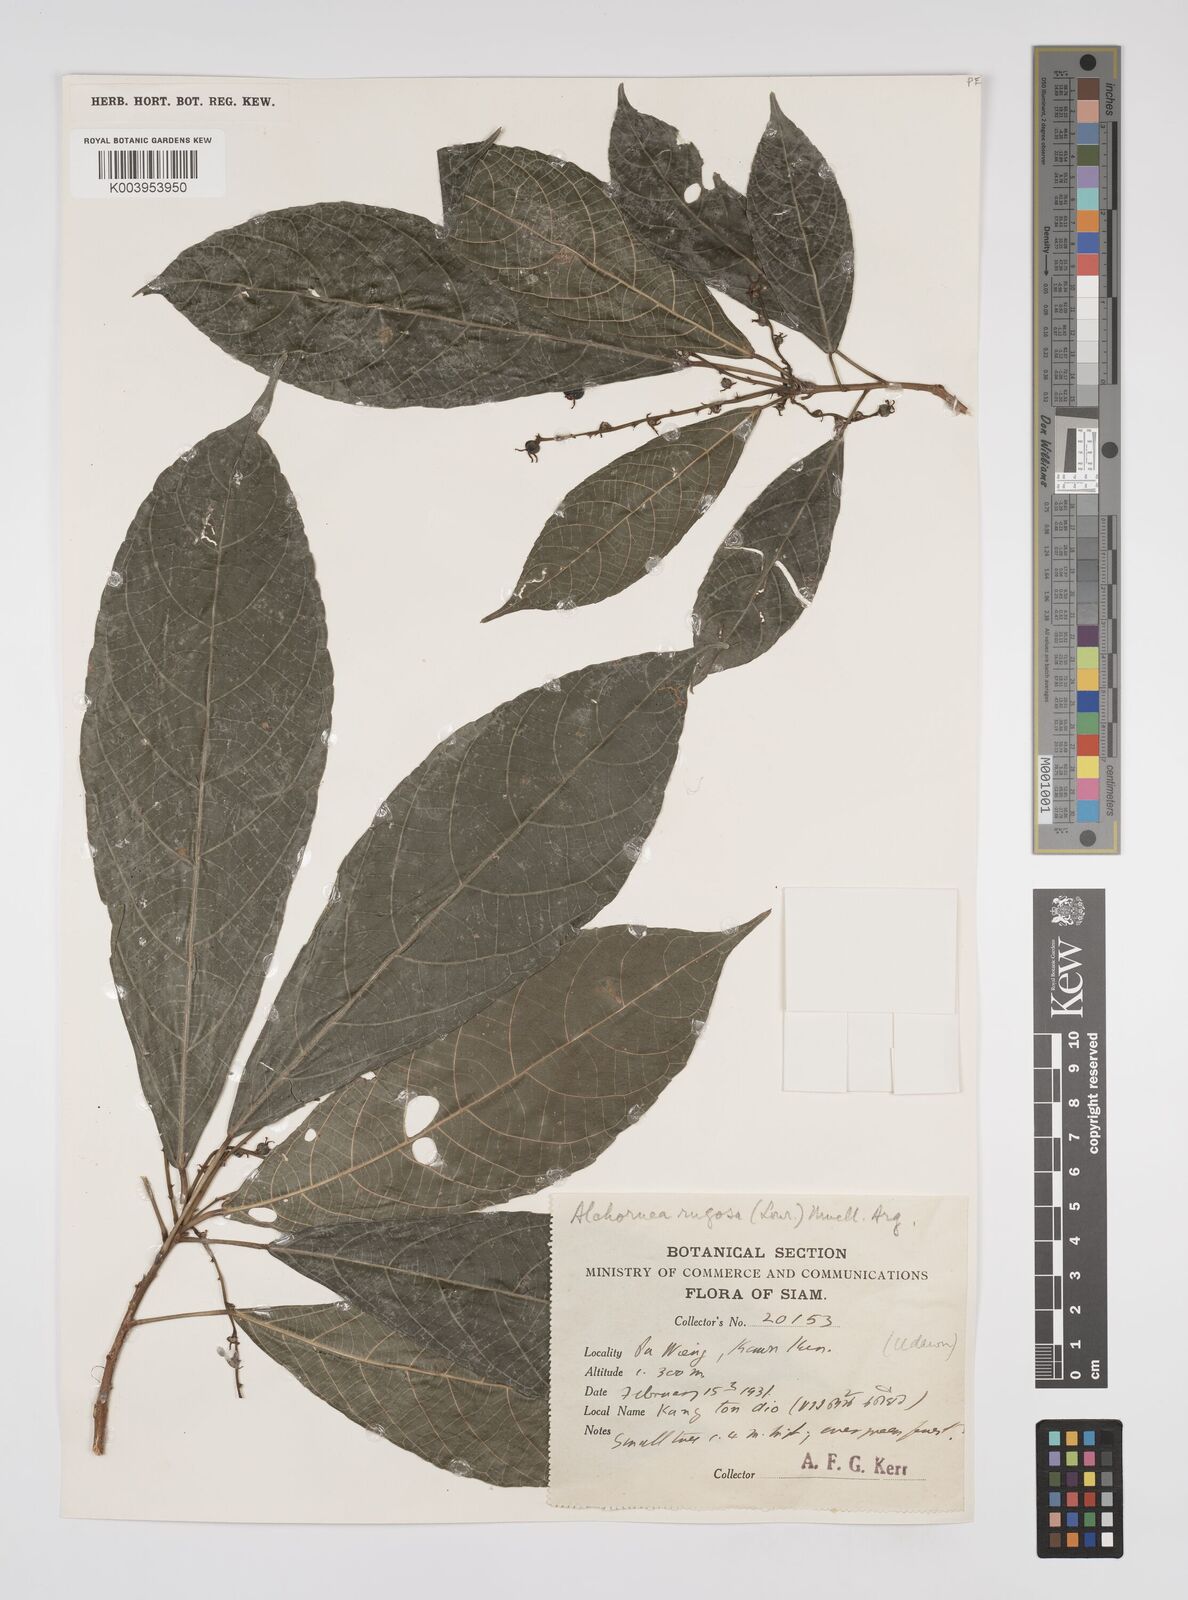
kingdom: Plantae
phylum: Tracheophyta
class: Magnoliopsida
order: Malpighiales
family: Euphorbiaceae
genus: Alchornea
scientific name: Alchornea rugosa
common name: Alchorntree
